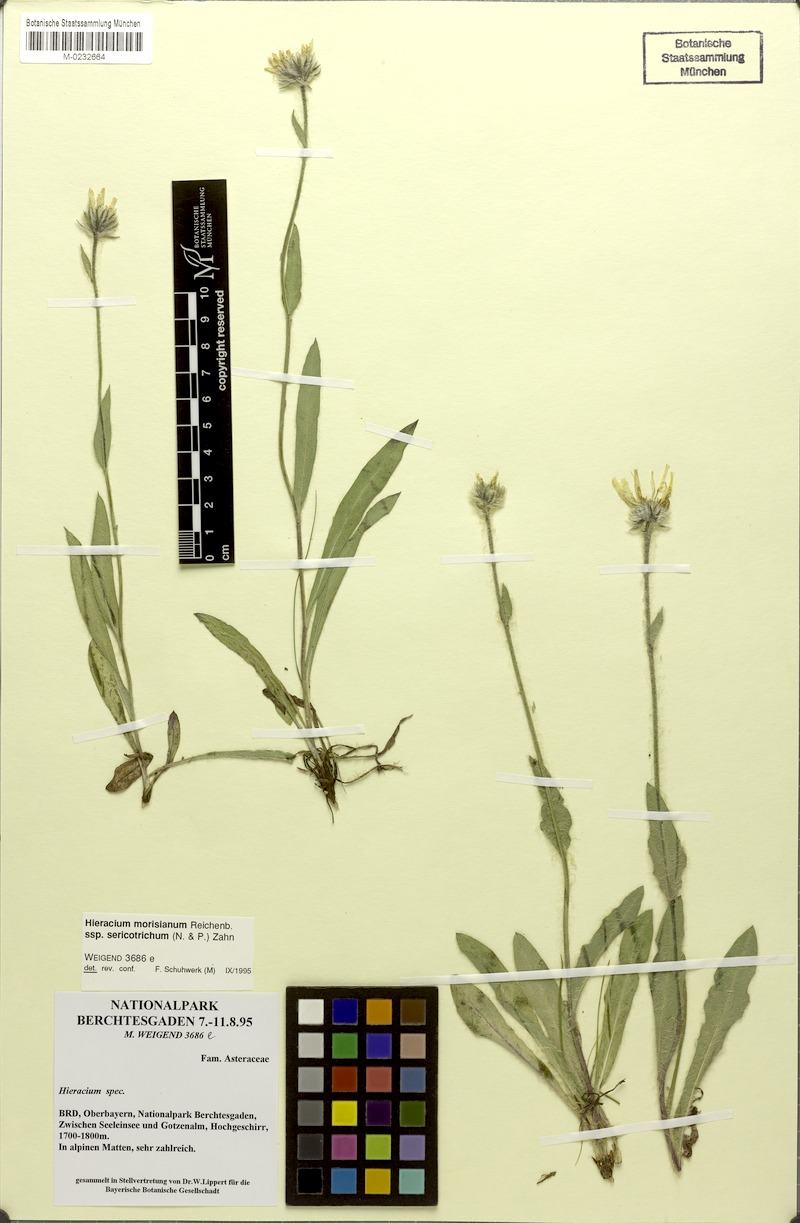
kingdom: Plantae
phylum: Tracheophyta
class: Magnoliopsida
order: Asterales
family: Asteraceae
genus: Hieracium
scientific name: Hieracium pilosum
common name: Fimbriate-pitted hawkweed
